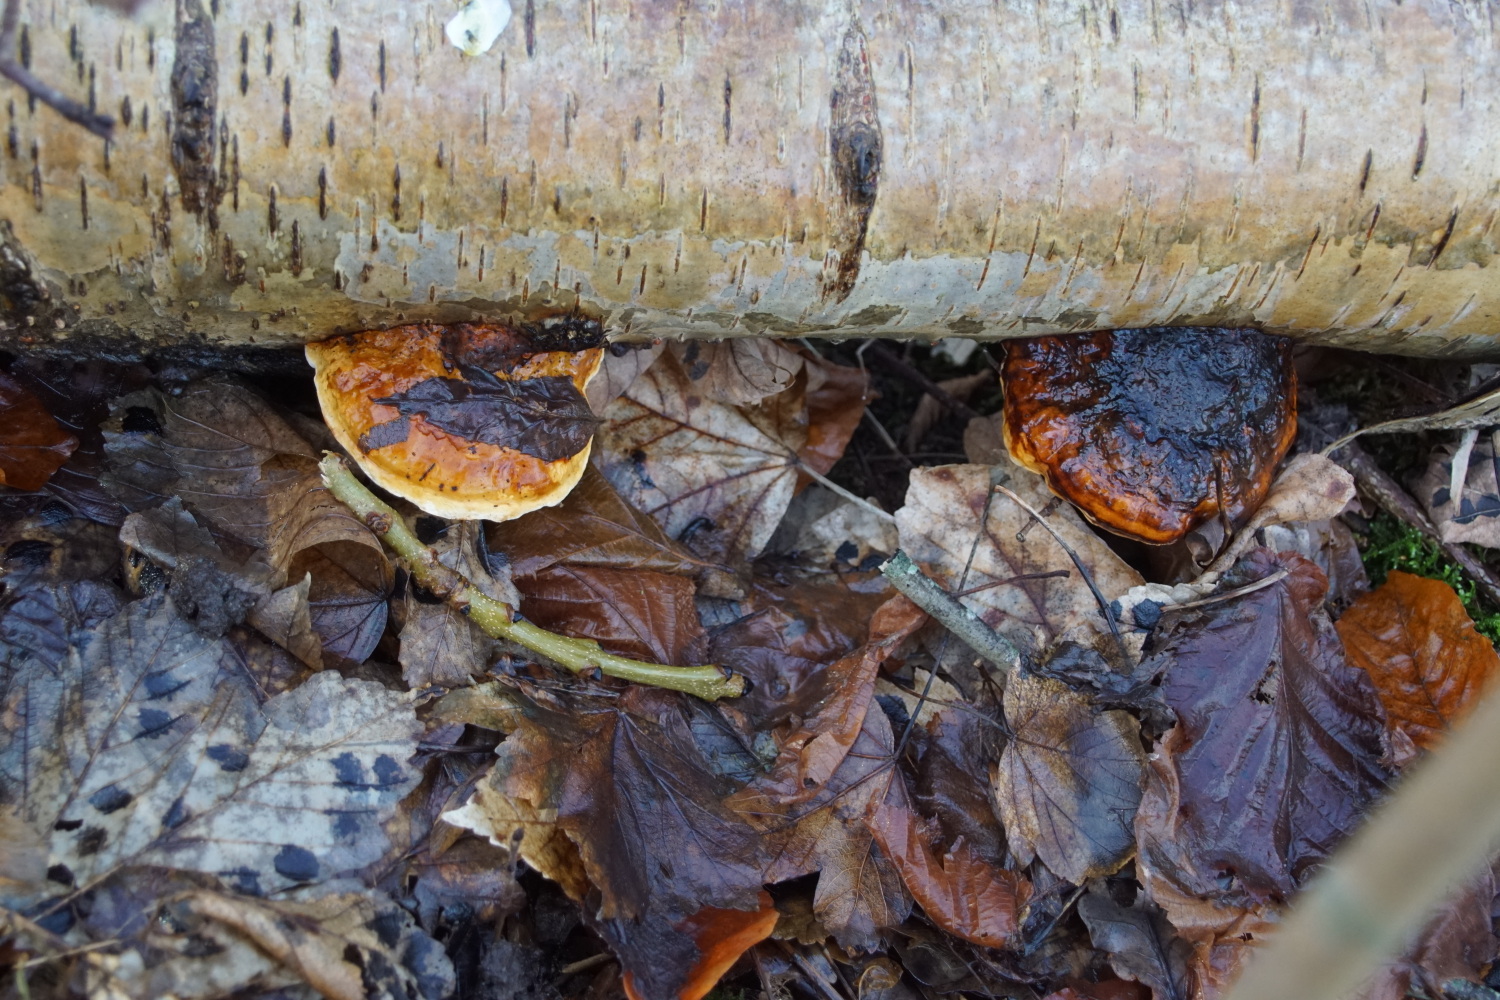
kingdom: Fungi
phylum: Basidiomycota
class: Agaricomycetes
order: Polyporales
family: Fomitopsidaceae
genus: Fomitopsis
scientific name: Fomitopsis pinicola
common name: randbæltet hovporesvamp
